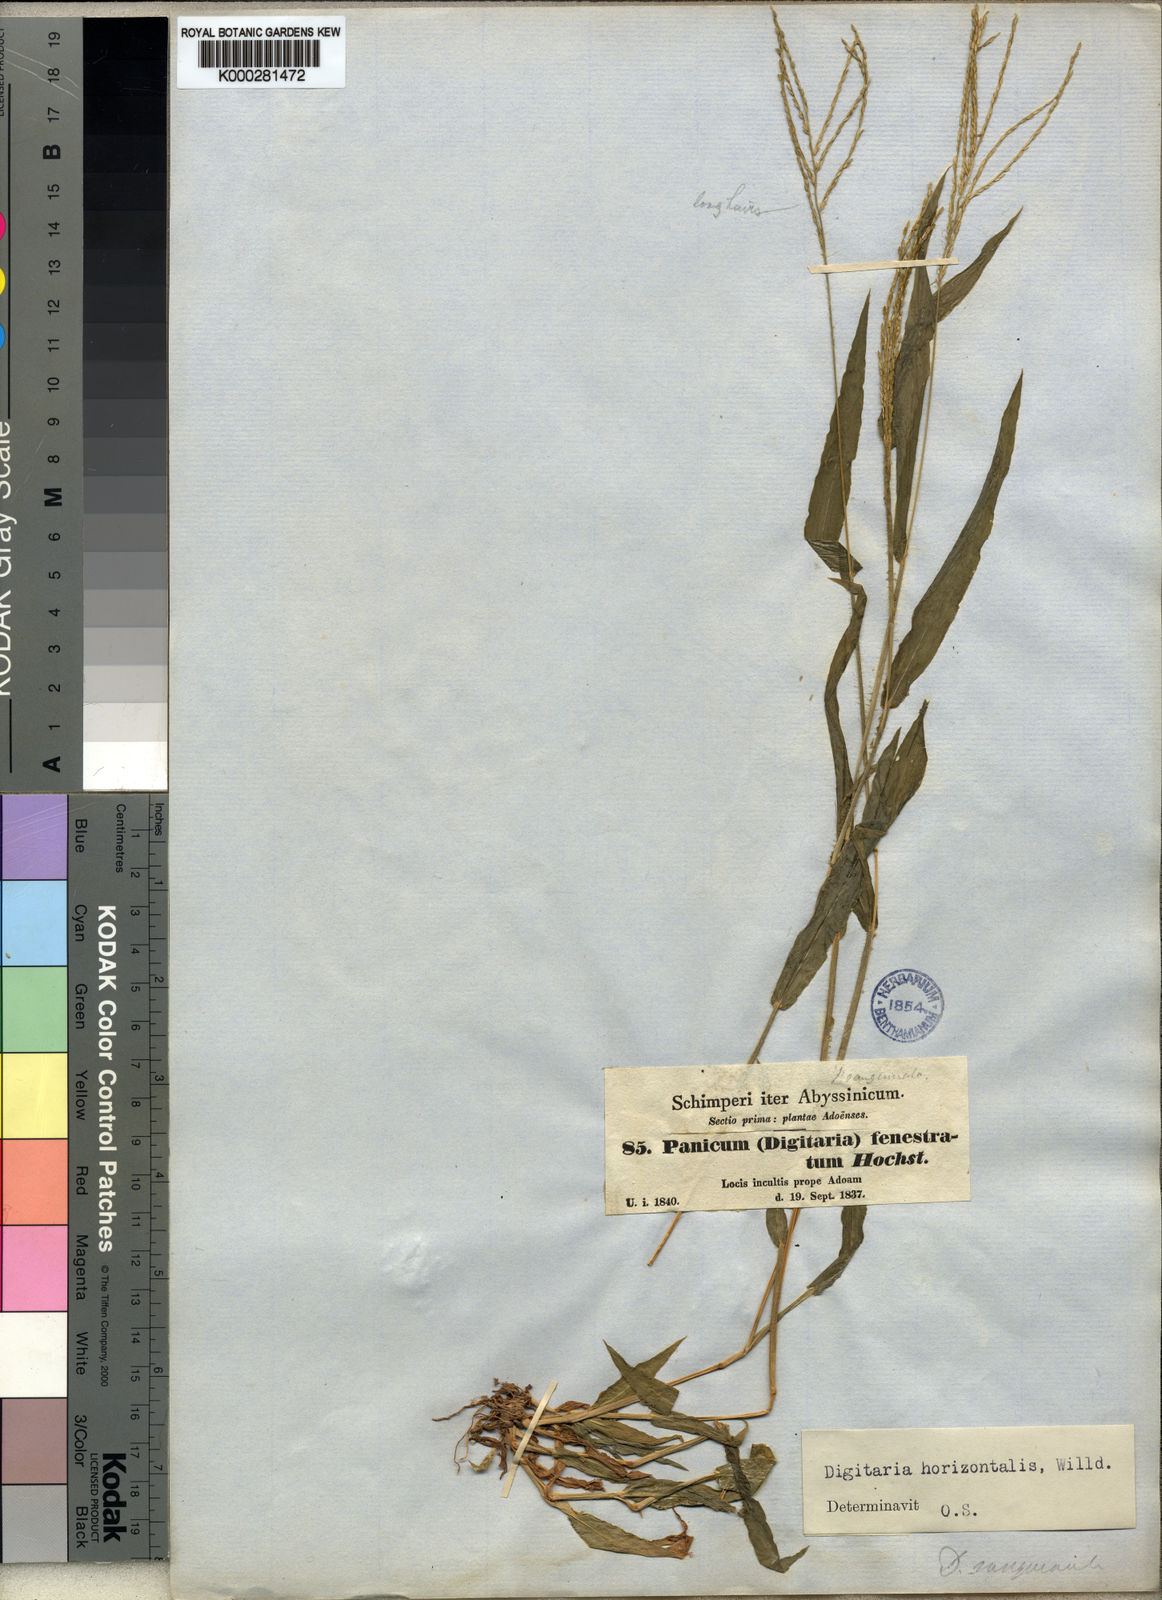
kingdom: Plantae
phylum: Tracheophyta
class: Liliopsida
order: Poales
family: Poaceae
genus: Digitaria
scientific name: Digitaria velutina
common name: Long-plume finger grass
